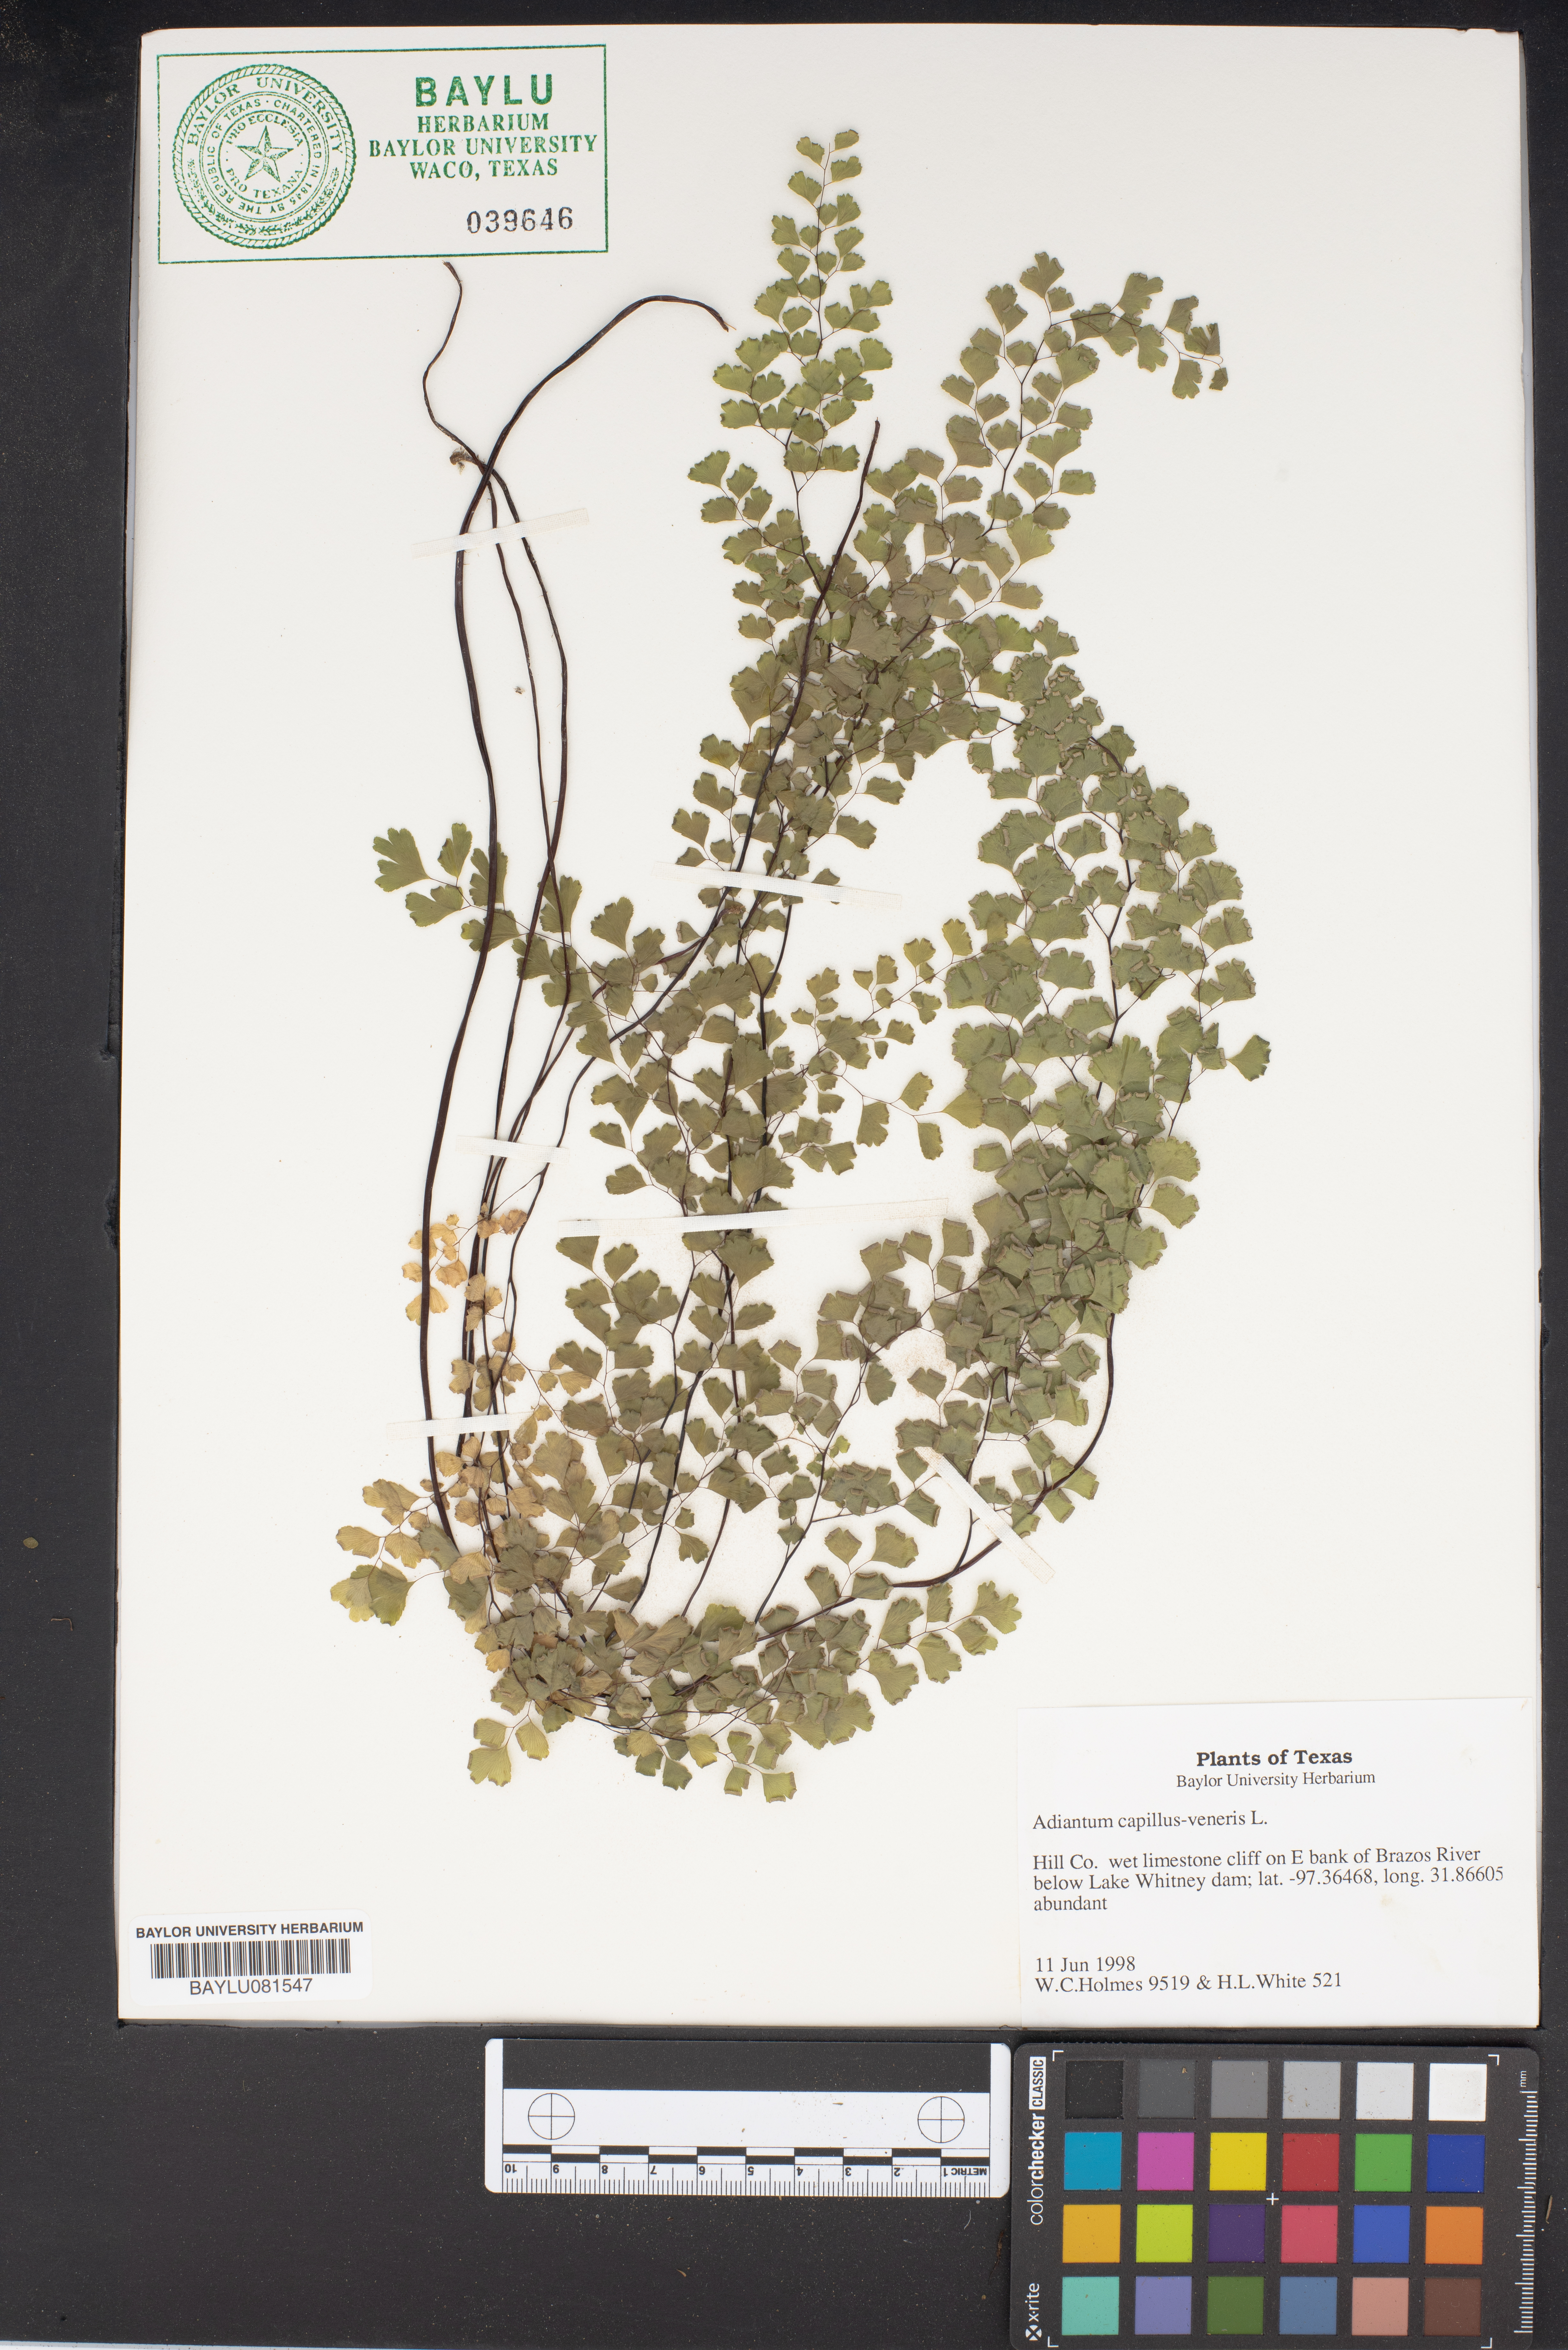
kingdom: Plantae
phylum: Tracheophyta
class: Polypodiopsida
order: Polypodiales
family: Pteridaceae
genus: Adiantum
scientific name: Adiantum capillus-veneris
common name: Maidenhair fern
